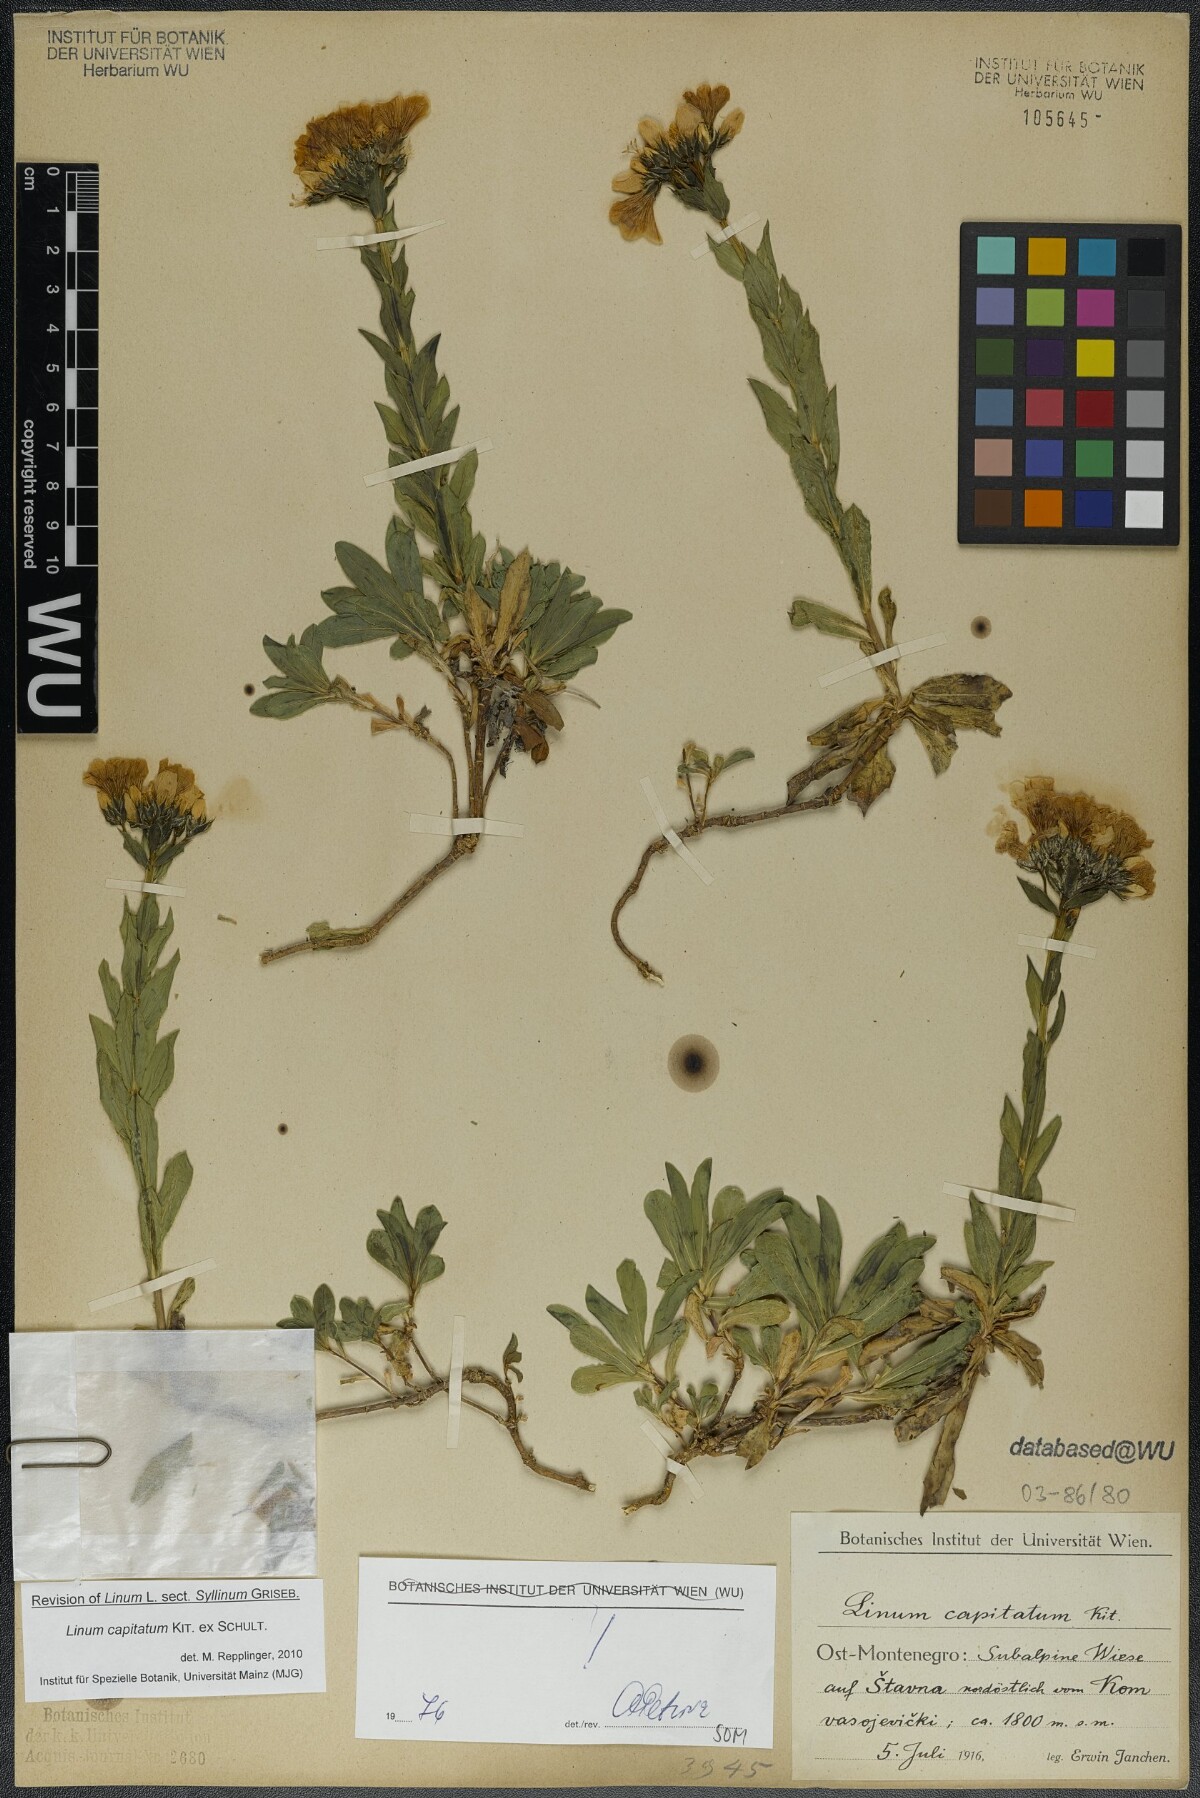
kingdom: Plantae
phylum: Tracheophyta
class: Magnoliopsida
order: Malpighiales
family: Linaceae
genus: Linum
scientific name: Linum capitatum
